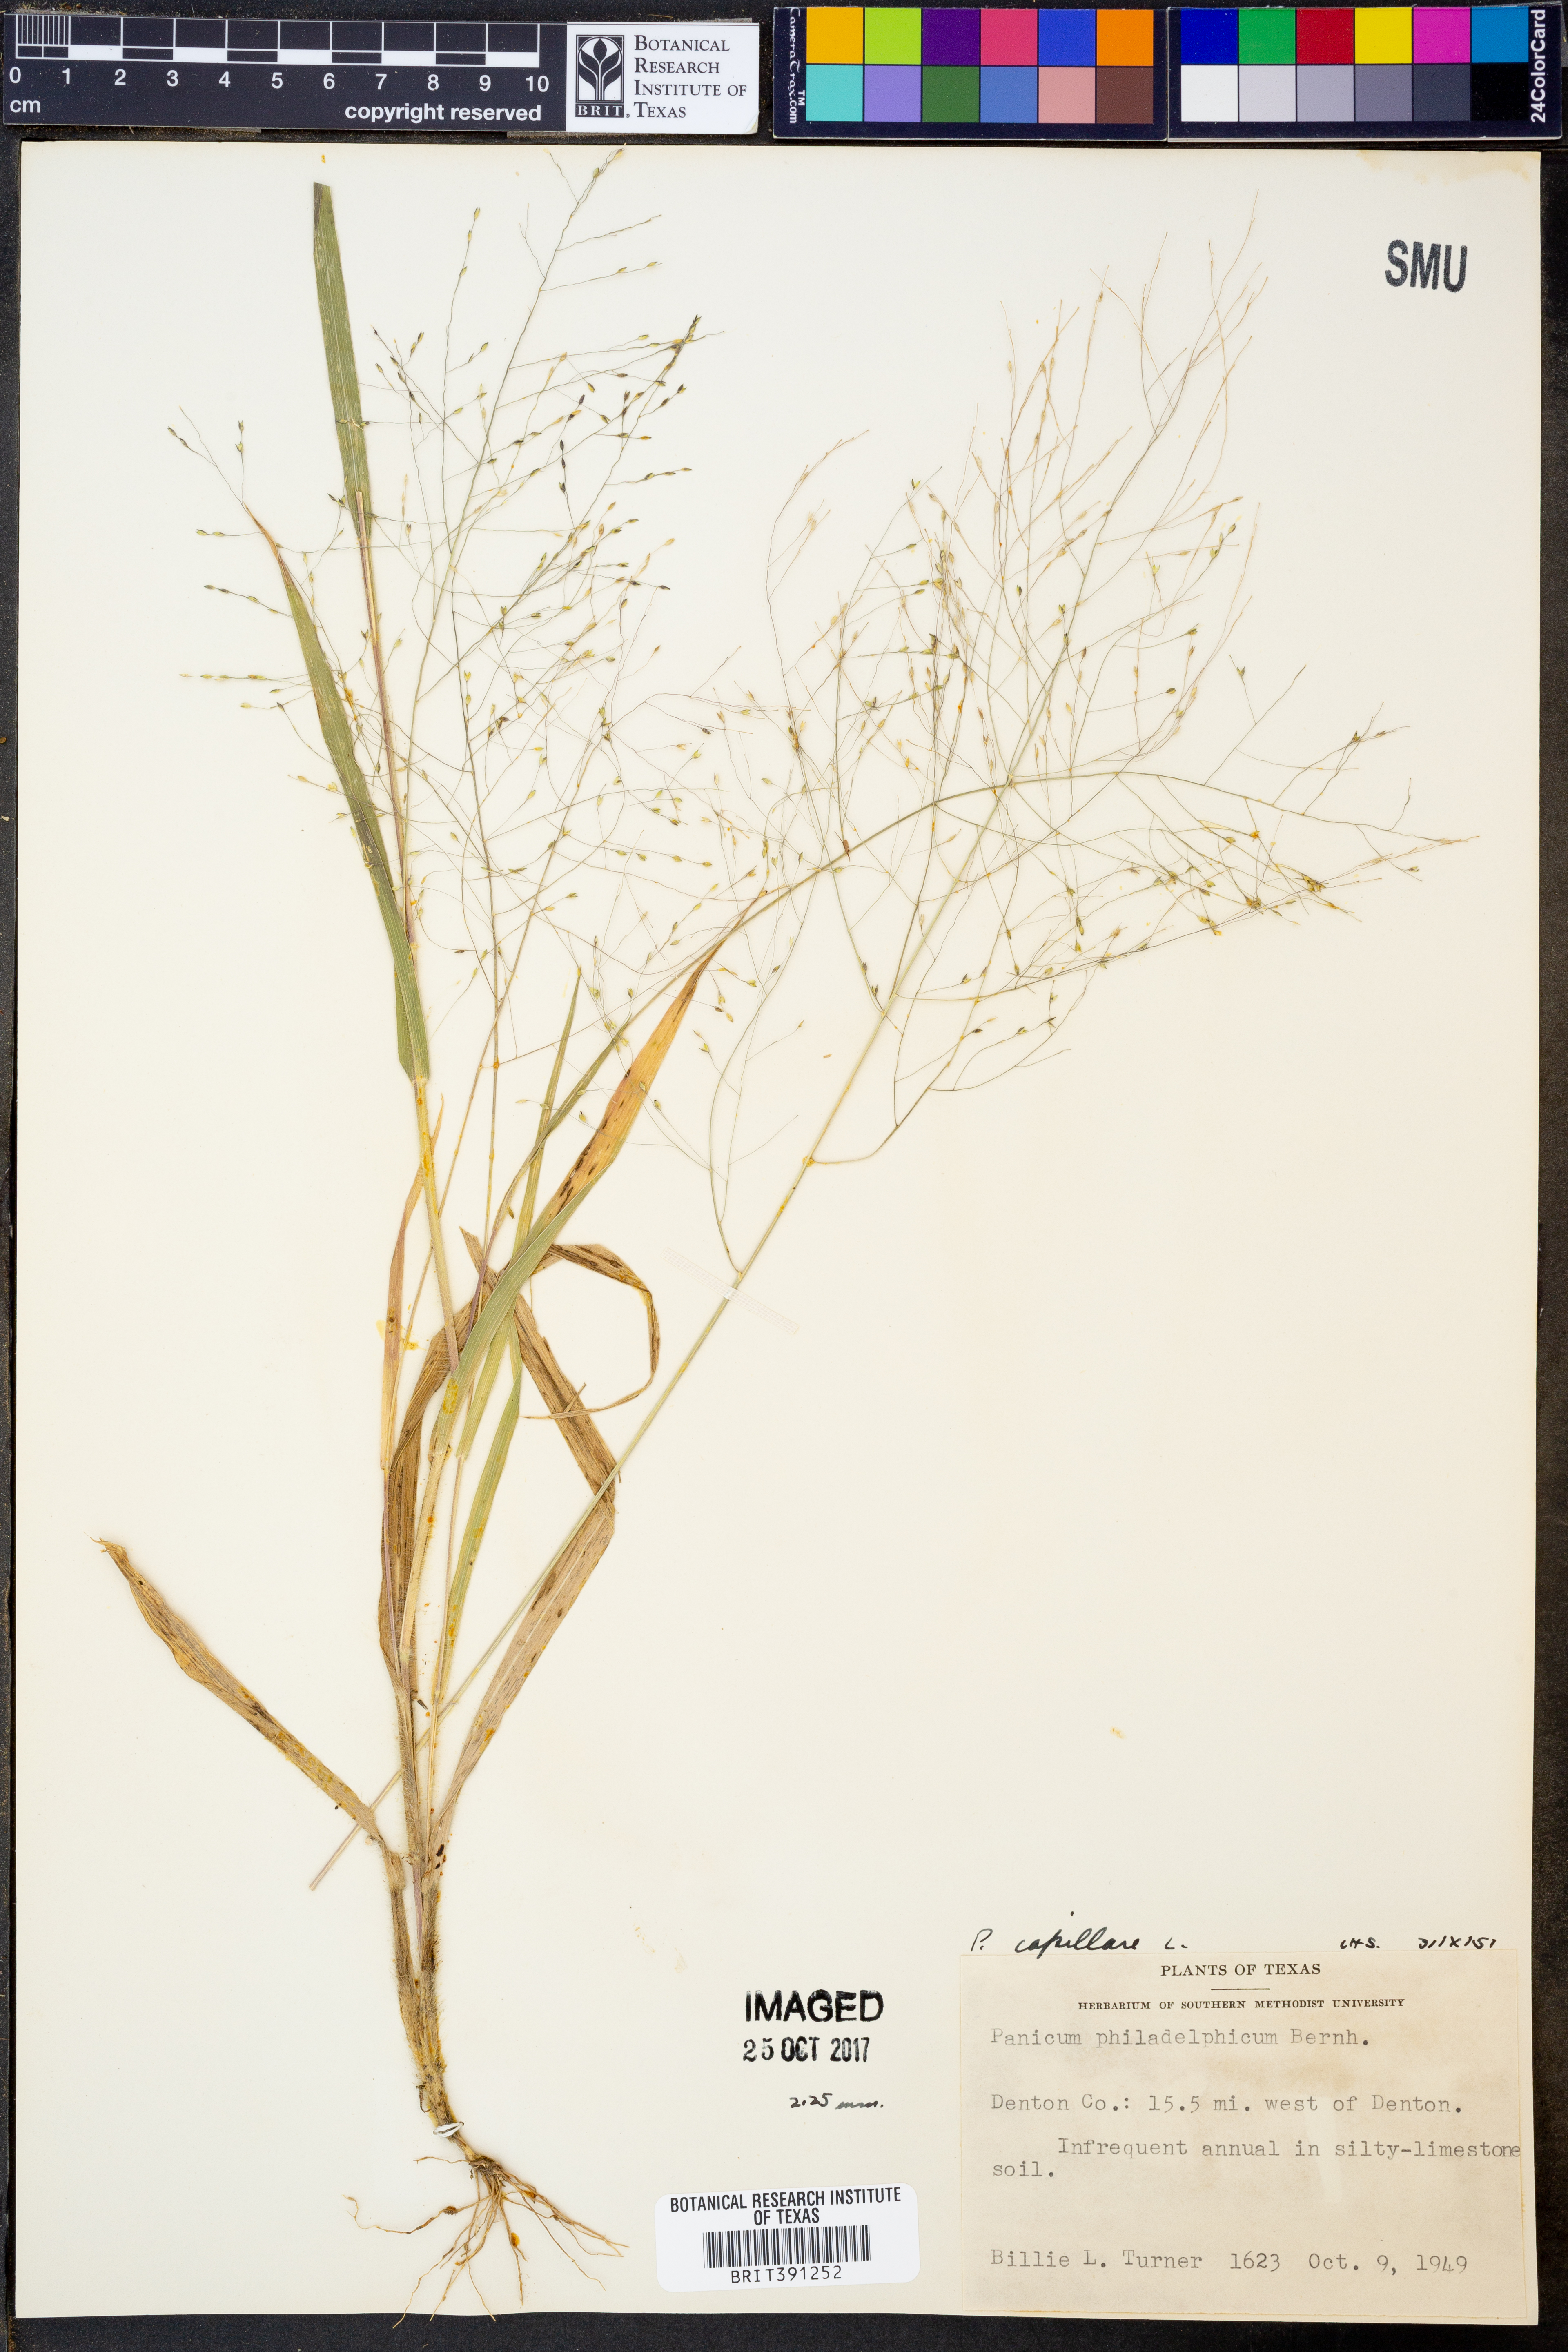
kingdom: Plantae
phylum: Tracheophyta
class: Liliopsida
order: Poales
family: Poaceae
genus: Panicum
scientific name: Panicum capillare
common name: Witch-grass
